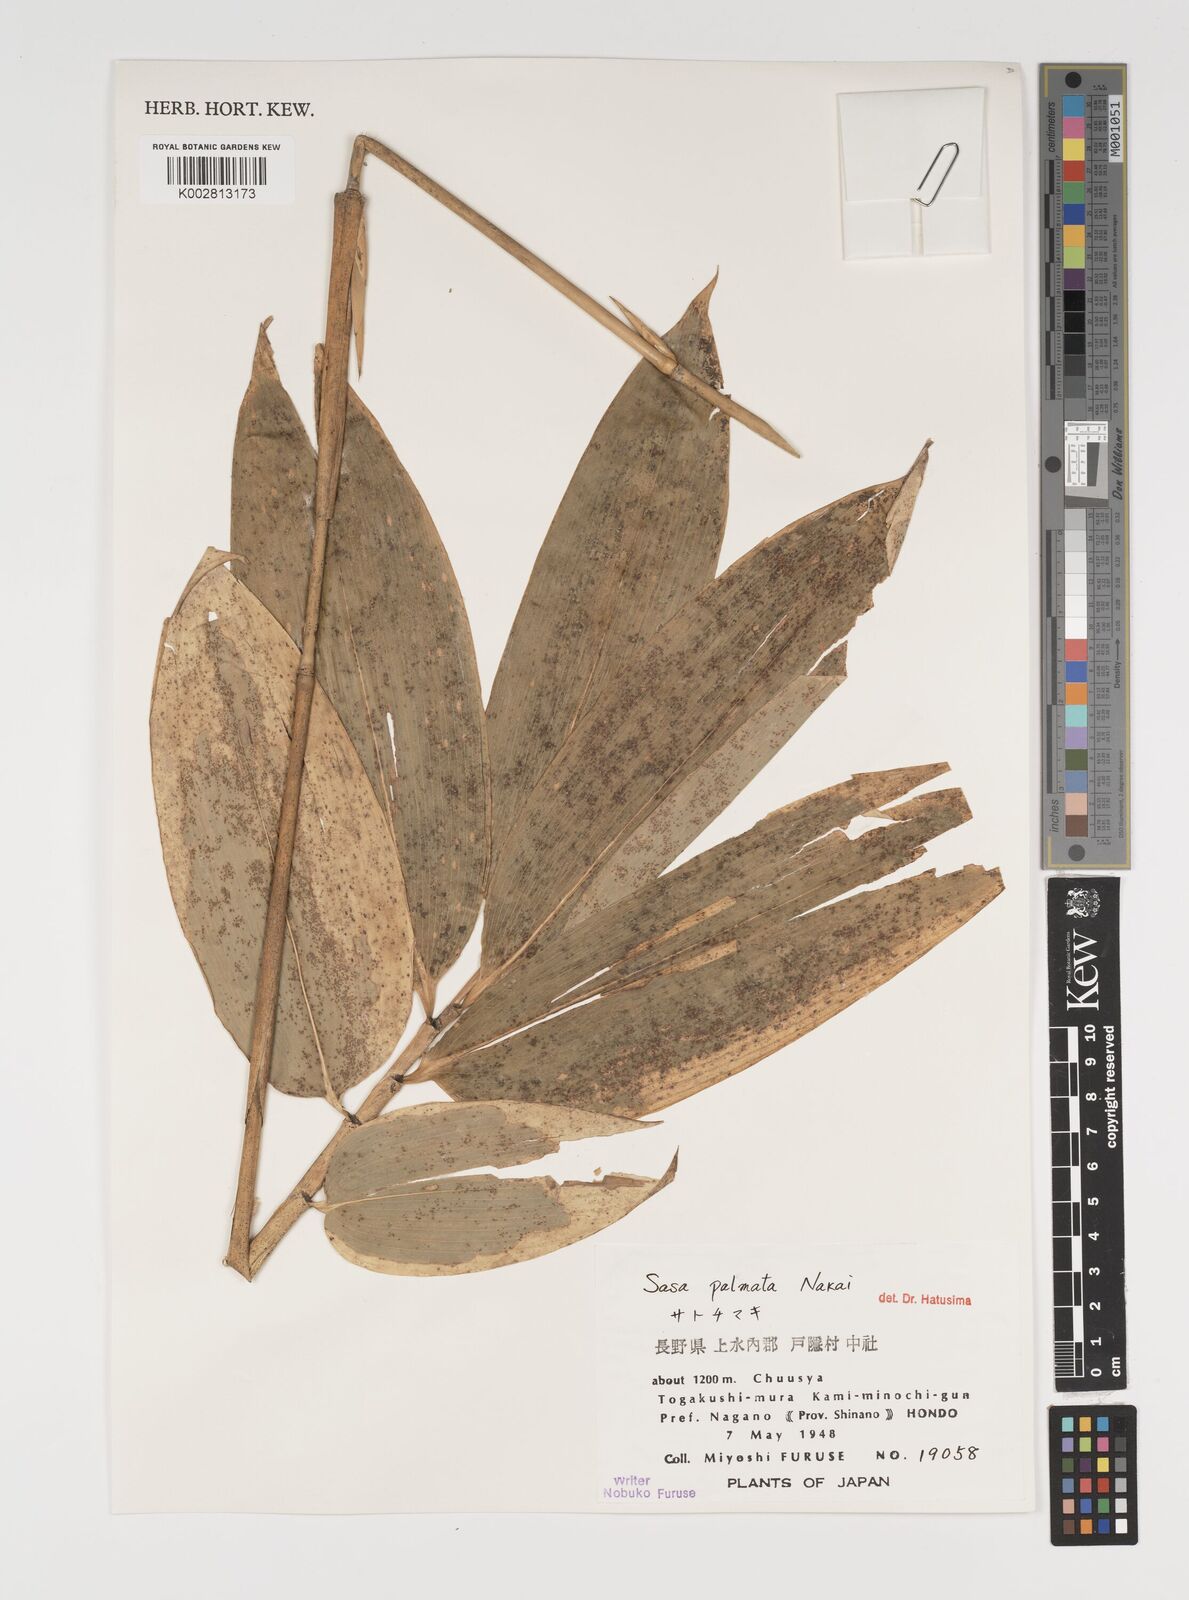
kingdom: Plantae
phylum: Tracheophyta
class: Liliopsida
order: Poales
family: Poaceae
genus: Sasa
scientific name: Sasa palmata
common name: Broad-leaved bamboo
